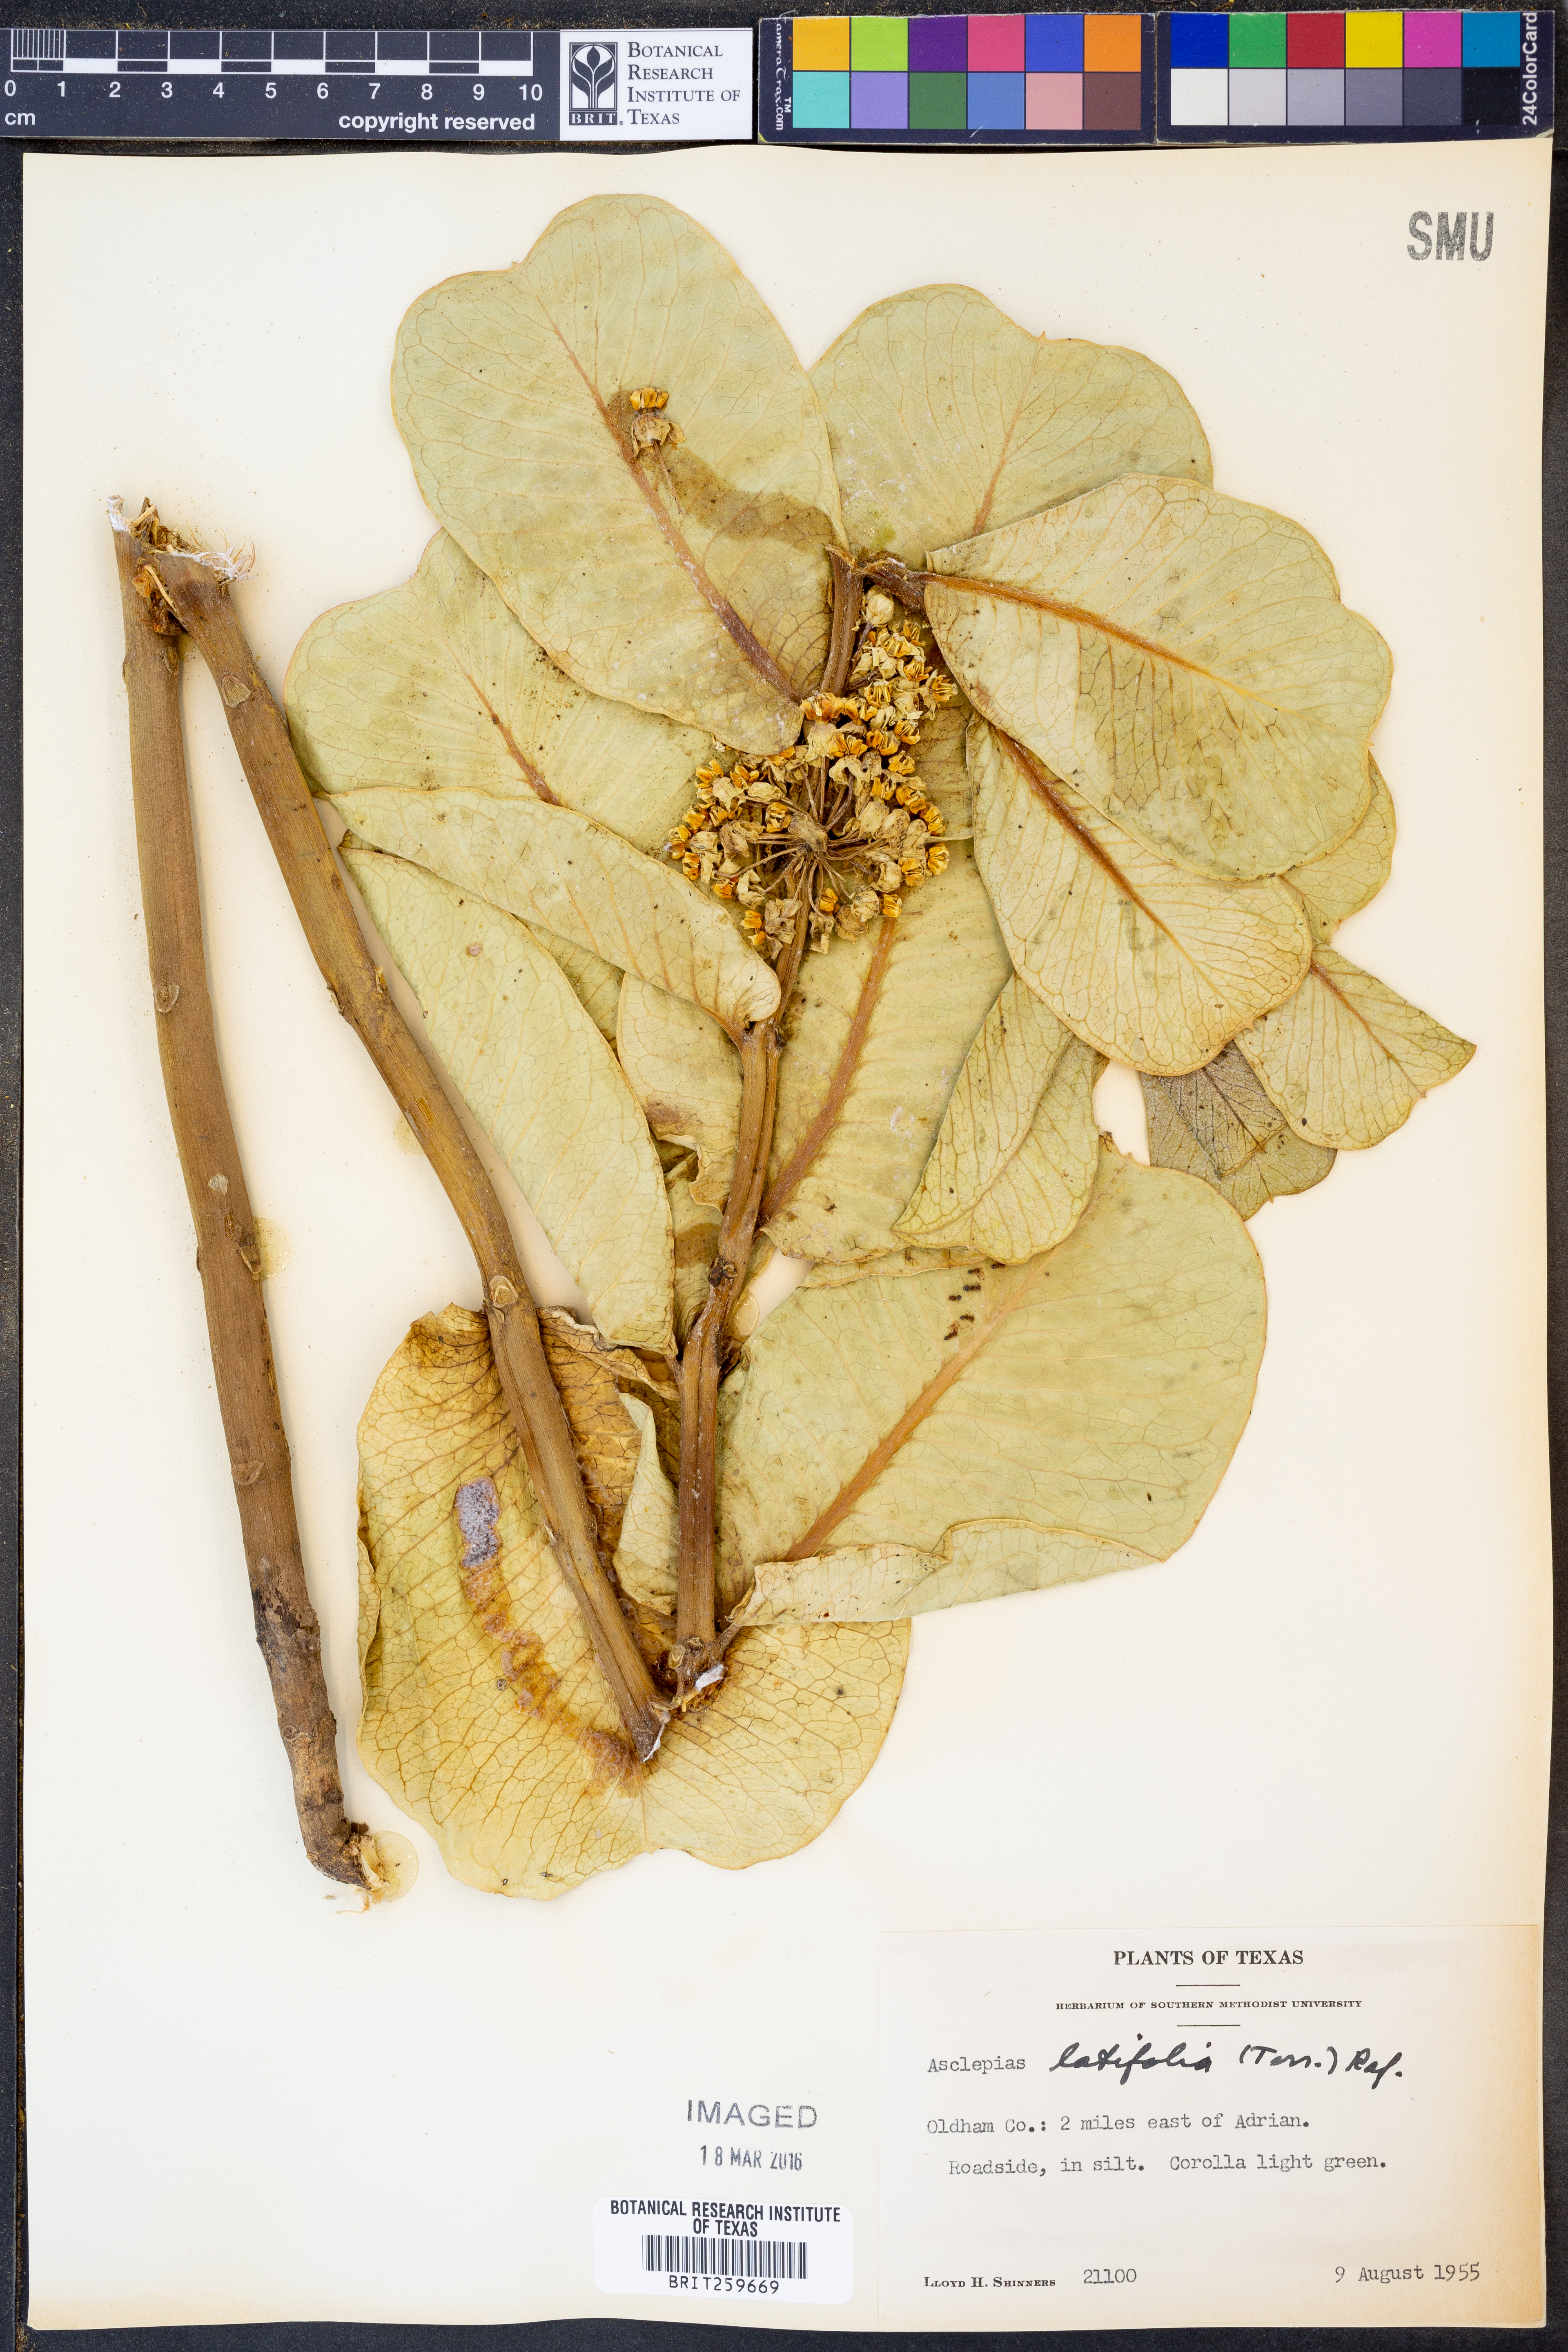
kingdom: Plantae
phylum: Tracheophyta
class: Magnoliopsida
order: Gentianales
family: Apocynaceae
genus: Asclepias
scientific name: Asclepias latifolia
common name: Broadleaf milkweed
